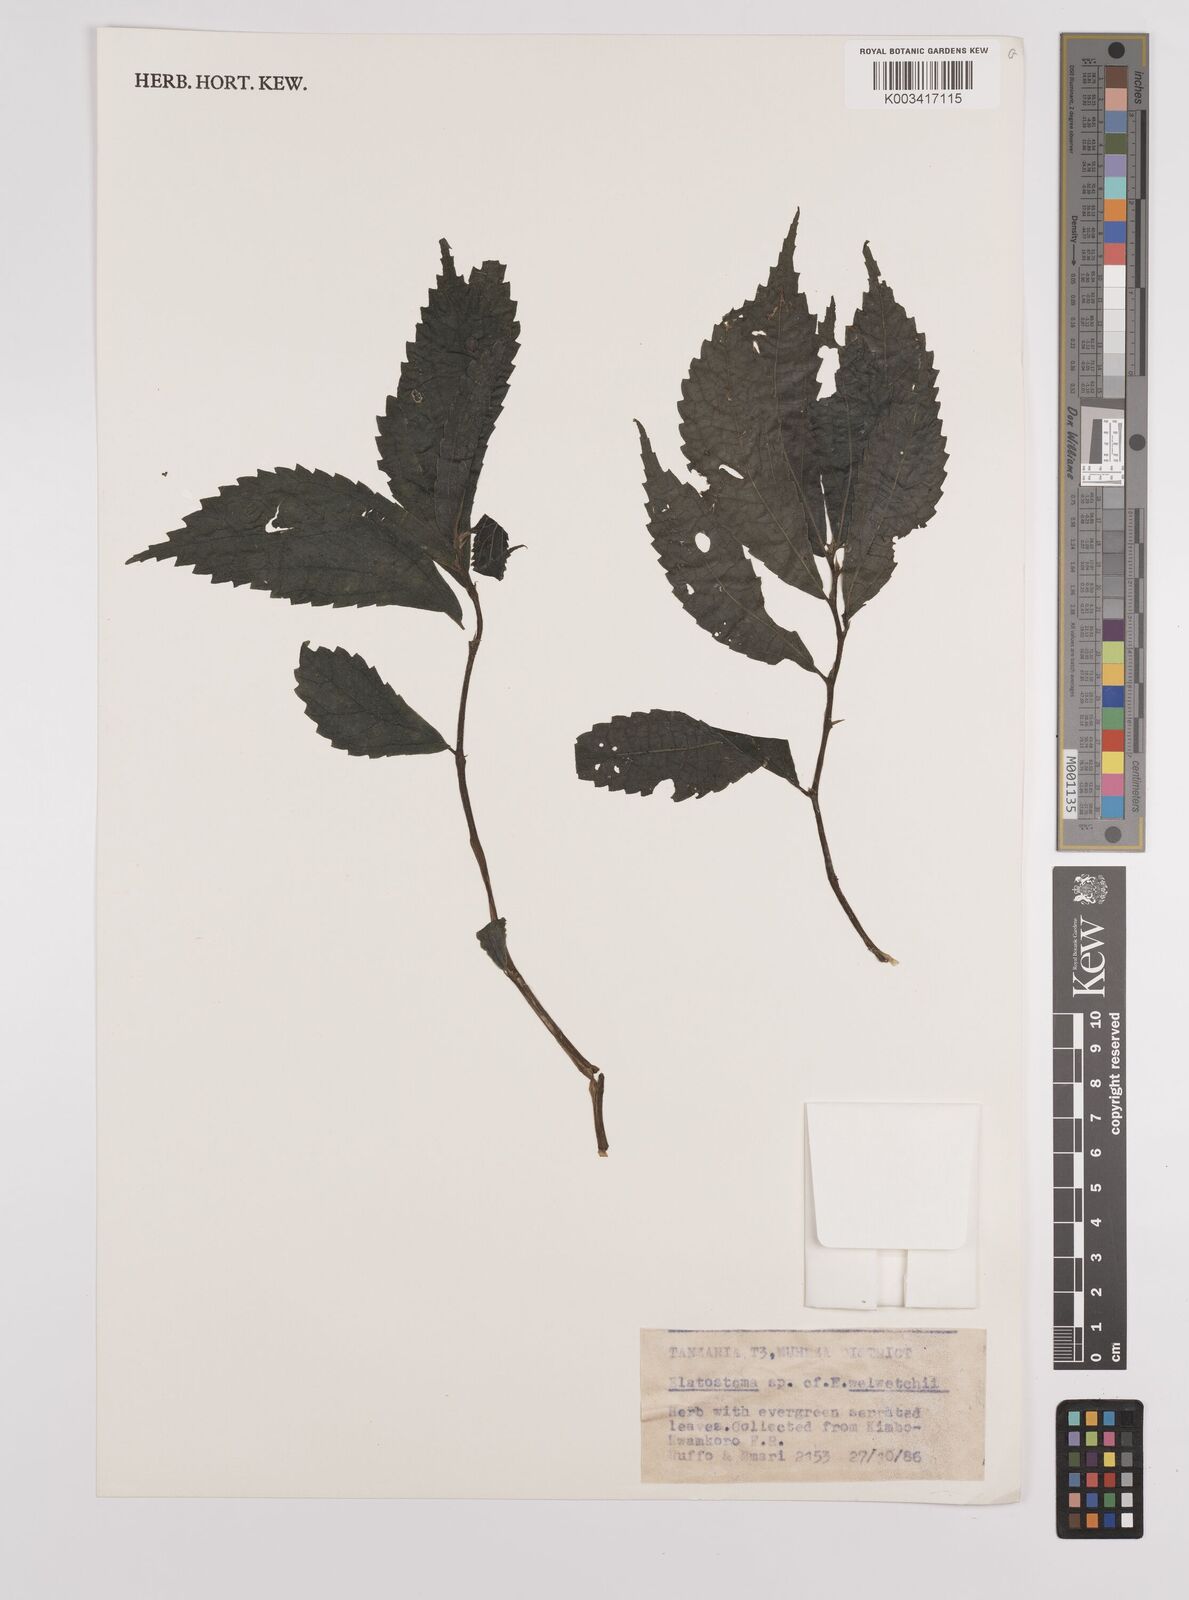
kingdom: Plantae
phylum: Tracheophyta
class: Magnoliopsida
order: Rosales
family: Urticaceae
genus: Elatostema
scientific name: Elatostema welwitschii
